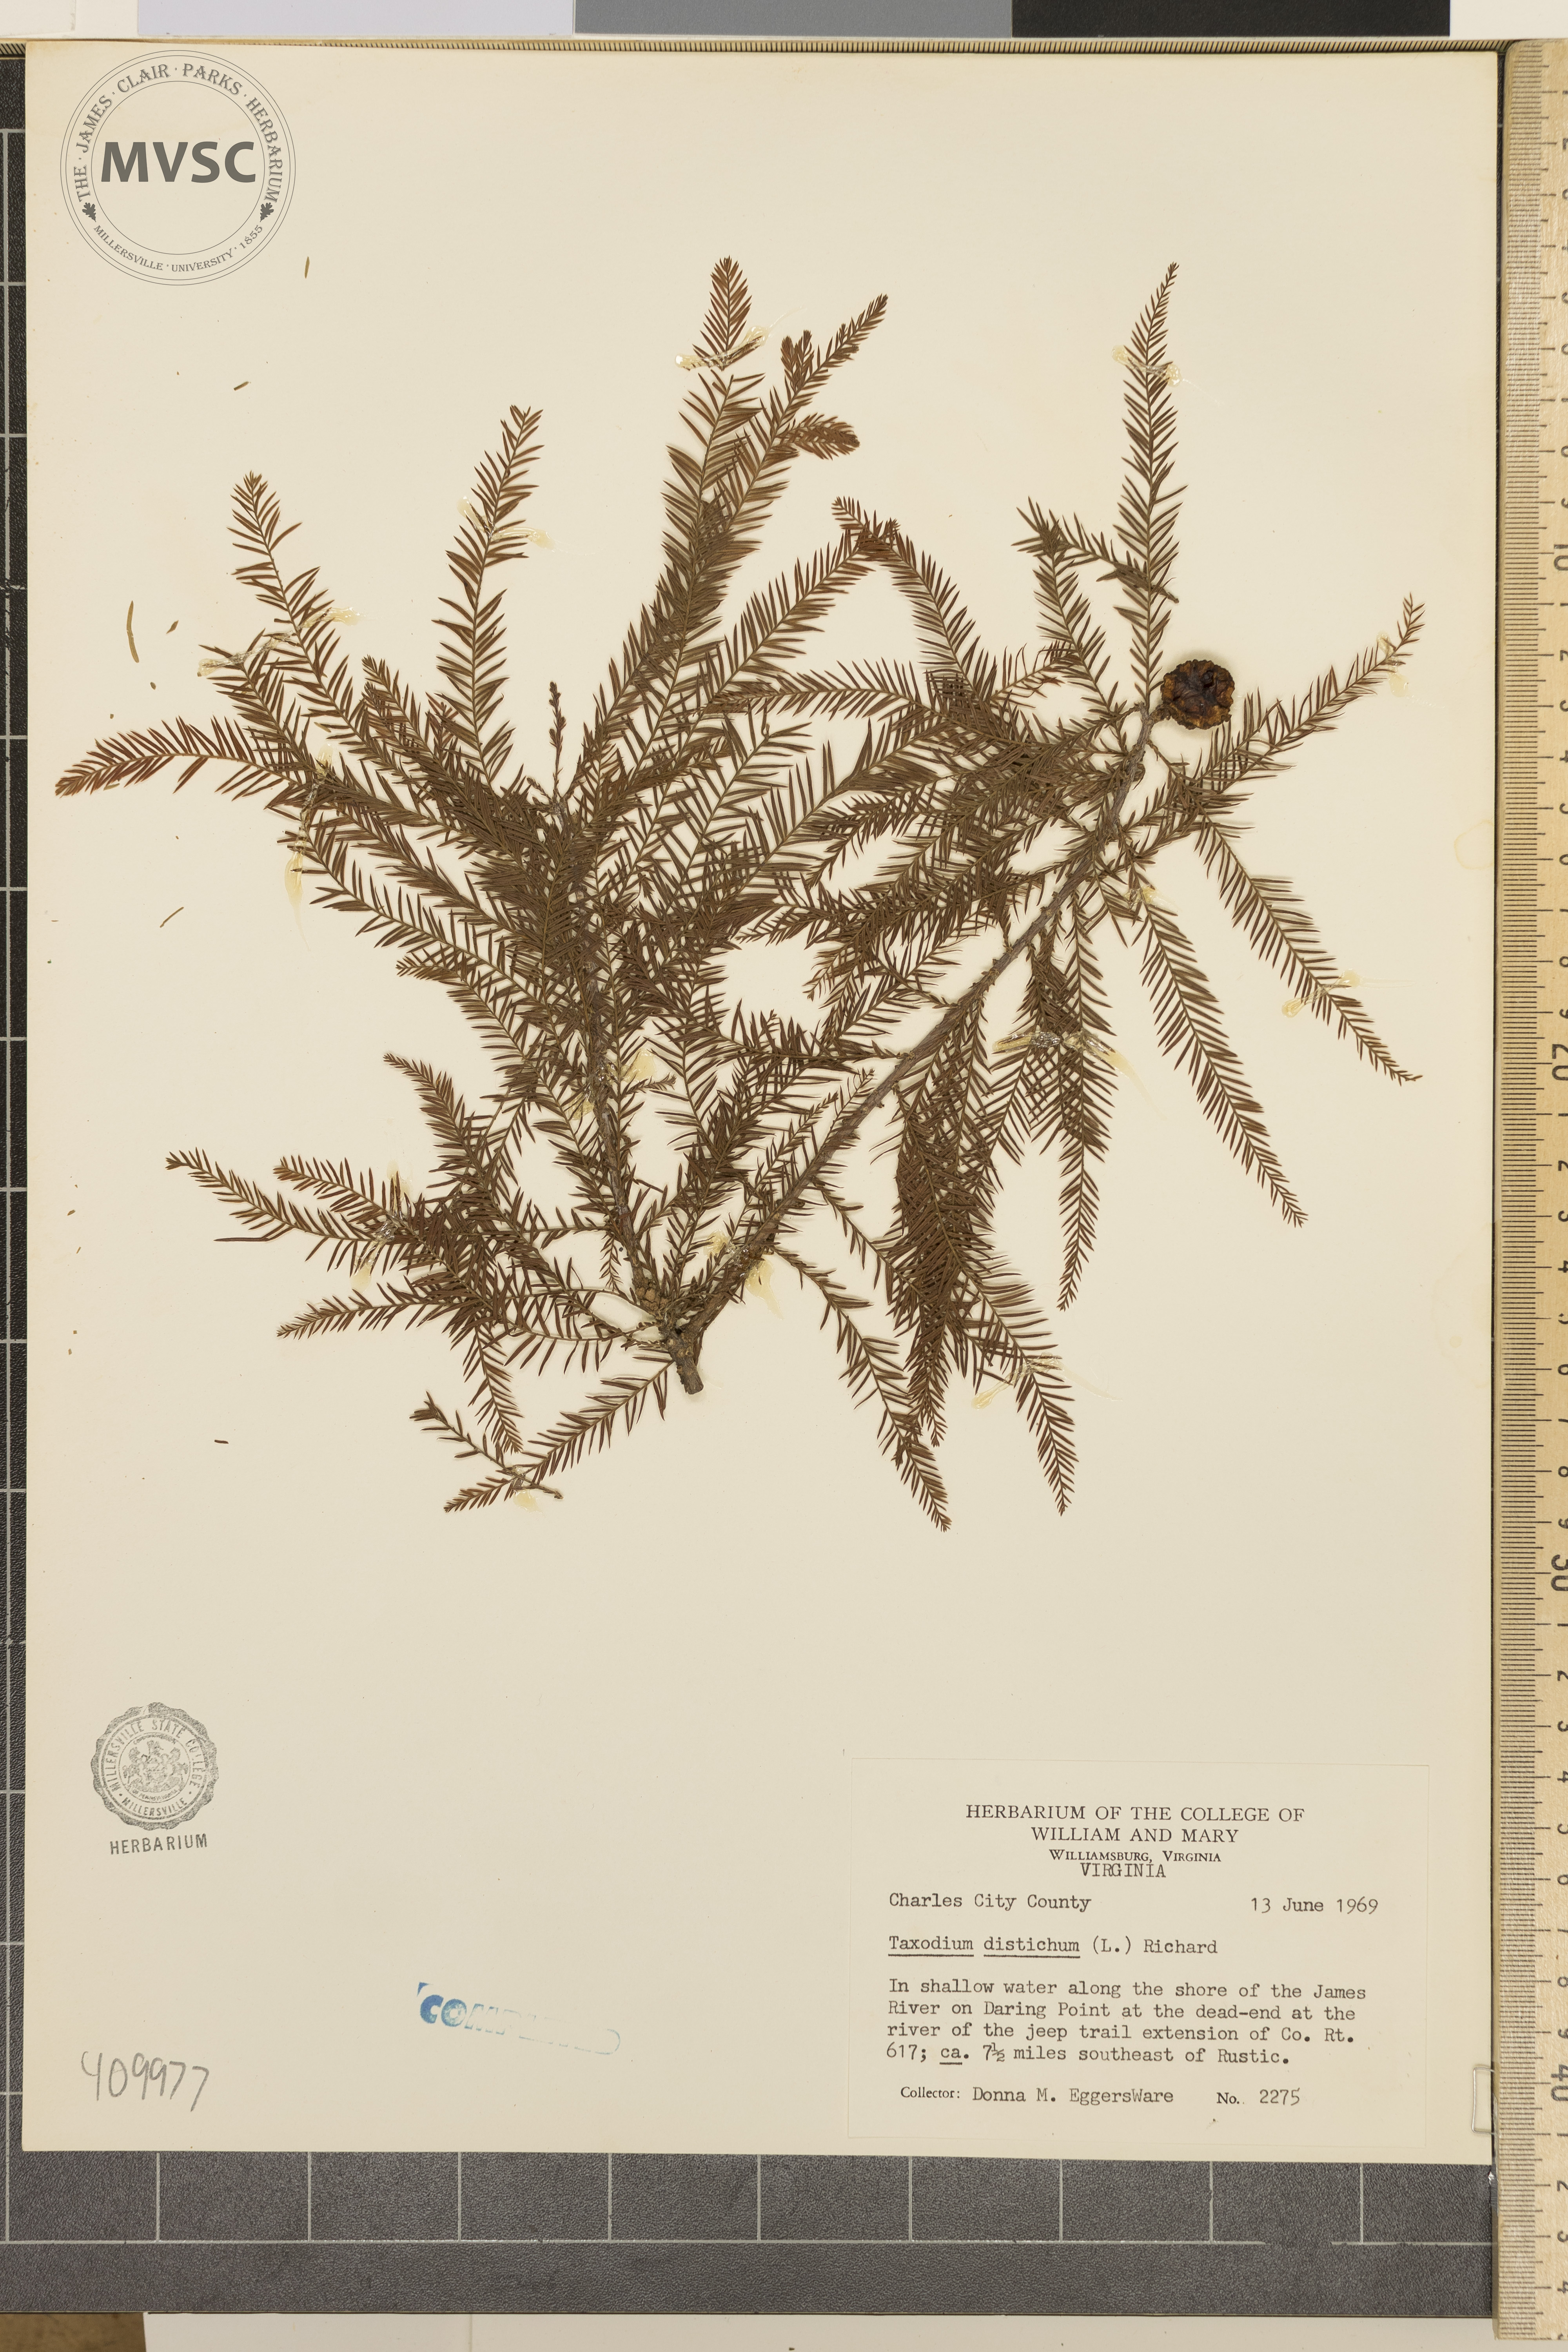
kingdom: Plantae
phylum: Tracheophyta
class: Pinopsida
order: Pinales
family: Cupressaceae
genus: Taxodium
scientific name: Taxodium distichum
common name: Bald cypress
